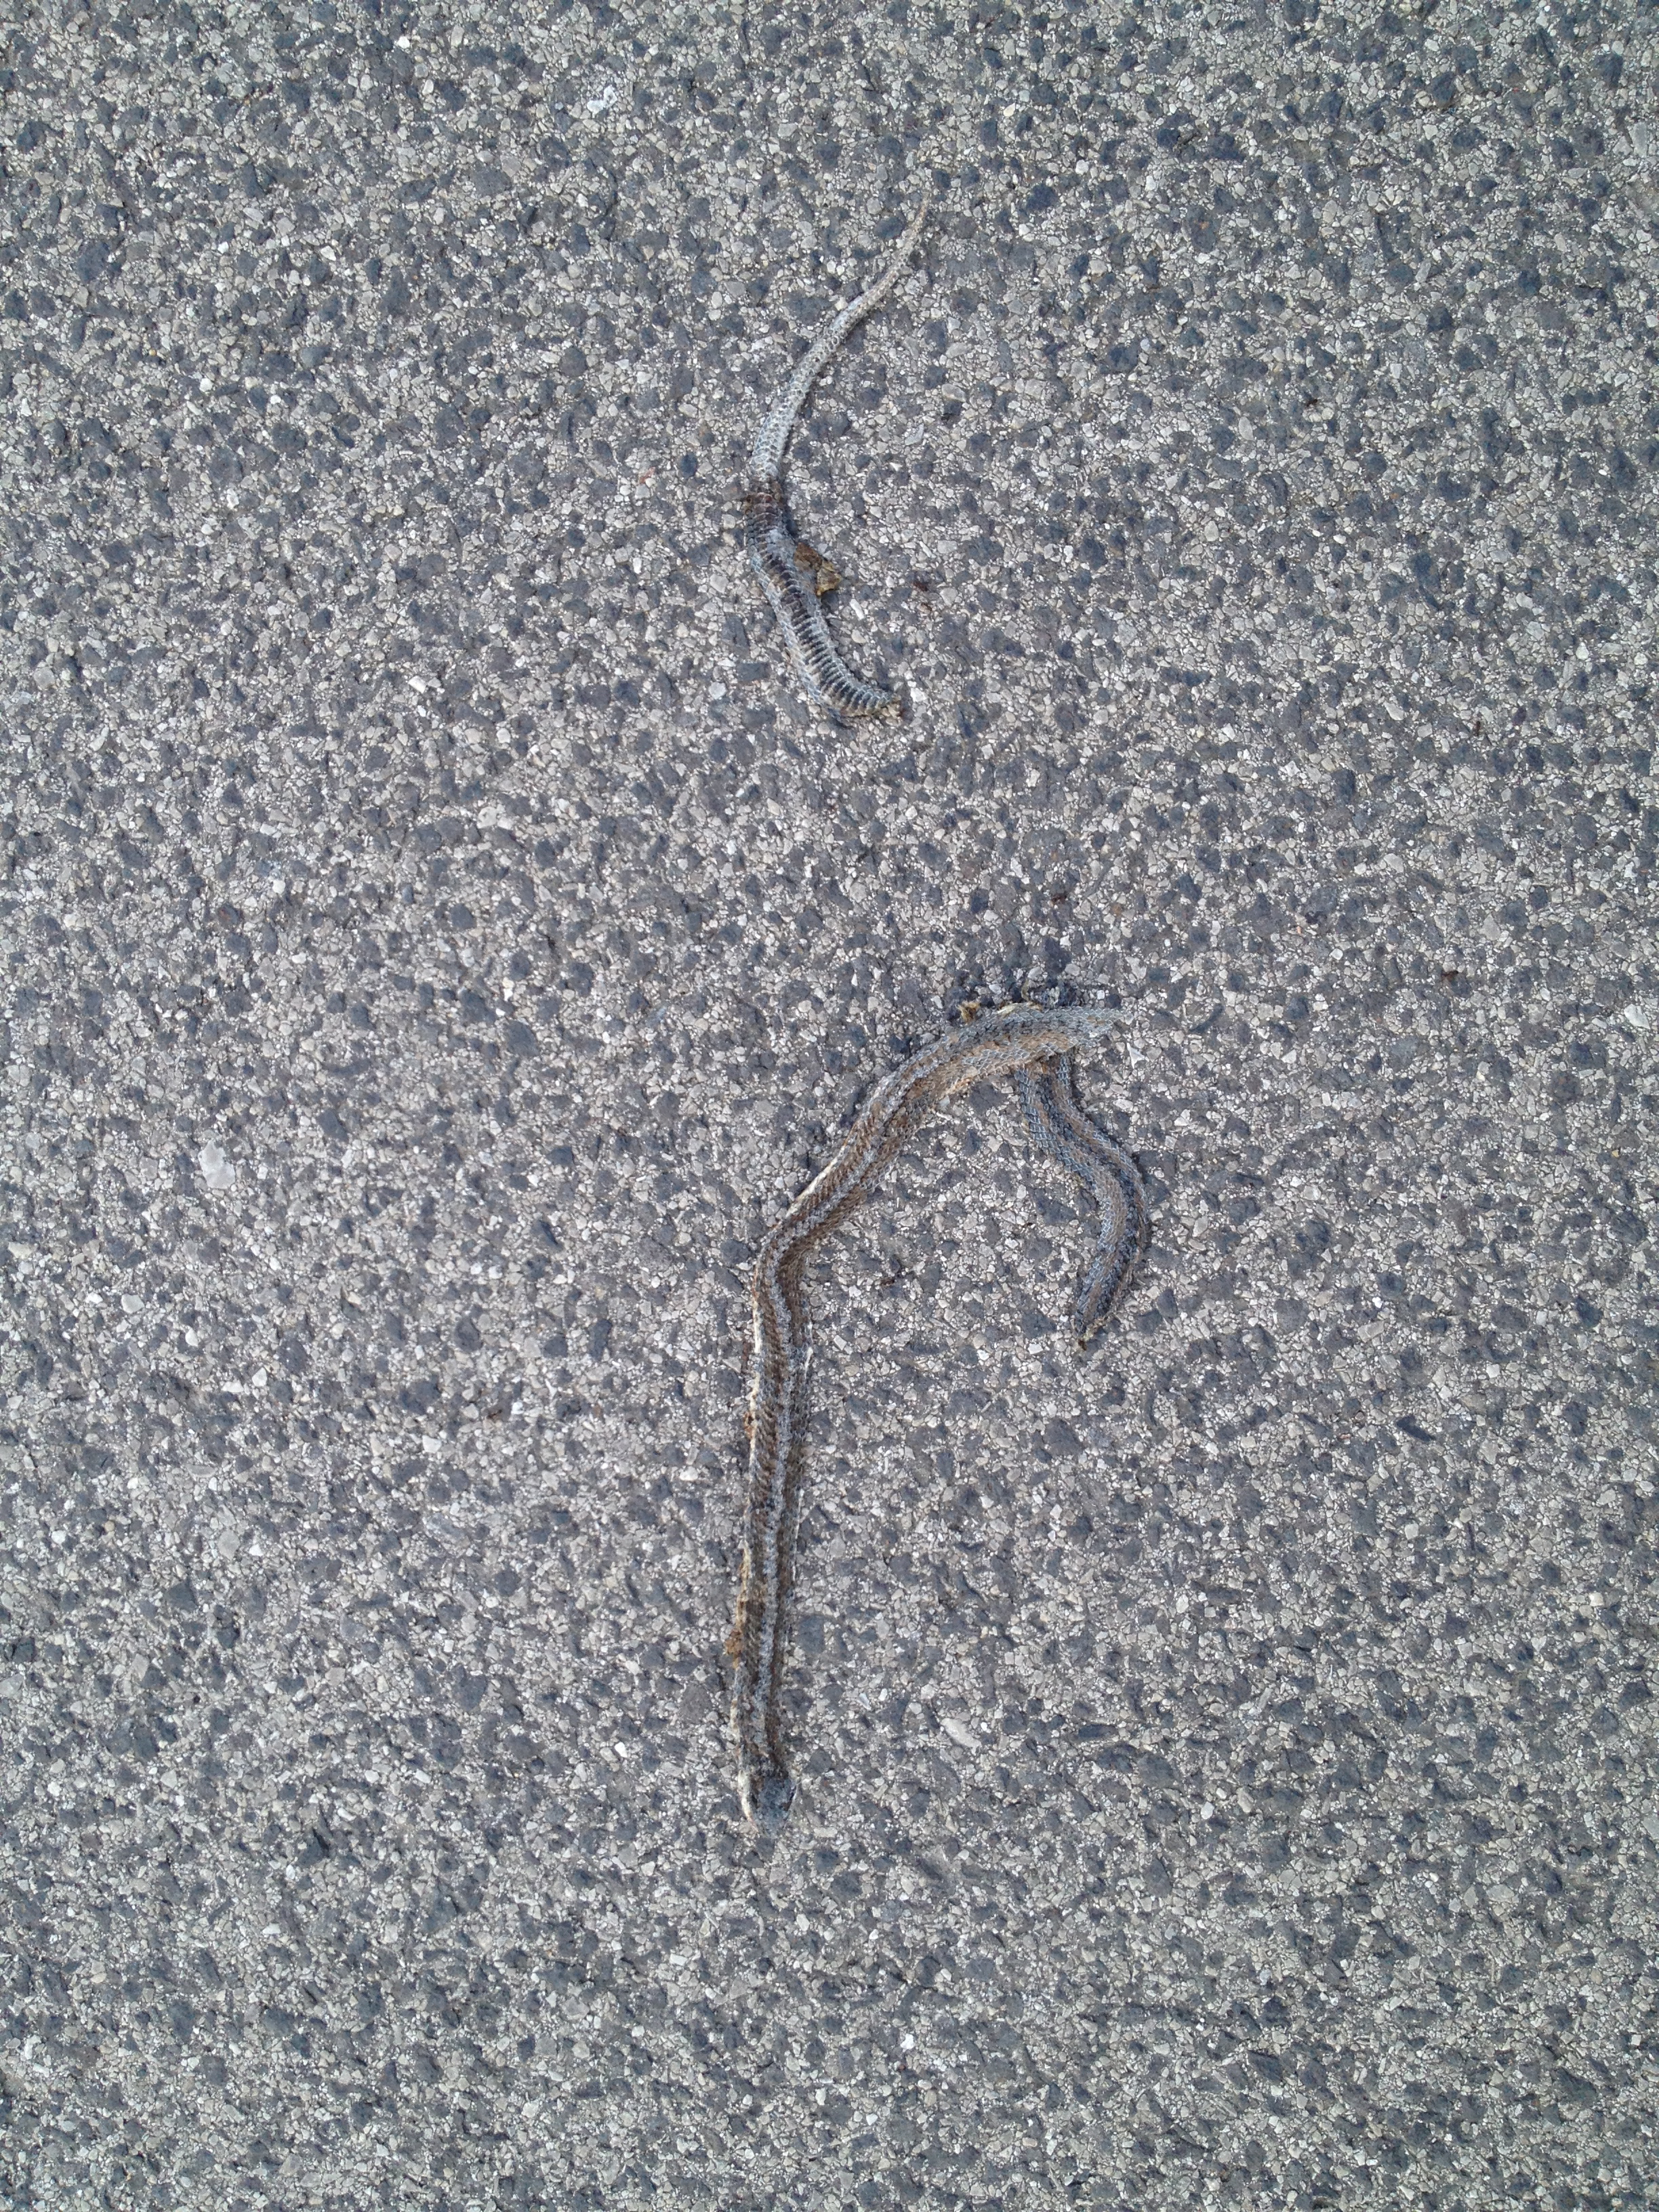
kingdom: Animalia
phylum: Chordata
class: Squamata
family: Colubridae
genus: Coronella
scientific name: Coronella austriaca
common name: Smooth snake
